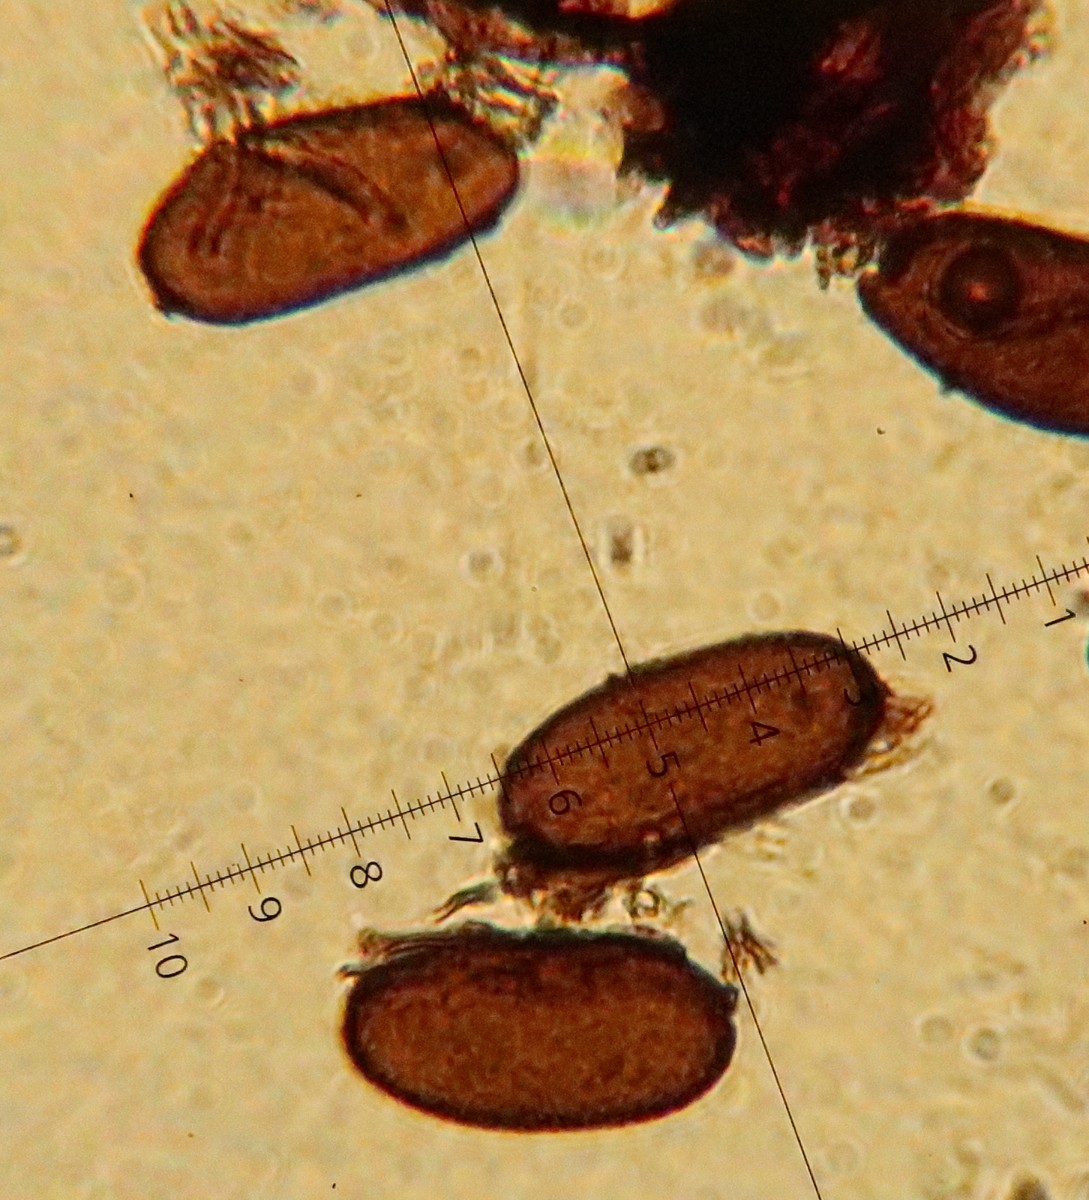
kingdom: Fungi
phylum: Ascomycota
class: Dothideomycetes
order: Botryosphaeriales
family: Botryosphaeriaceae
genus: Sphaeropsis
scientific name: Sphaeropsis sapinea
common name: Sphaeropsis blight
